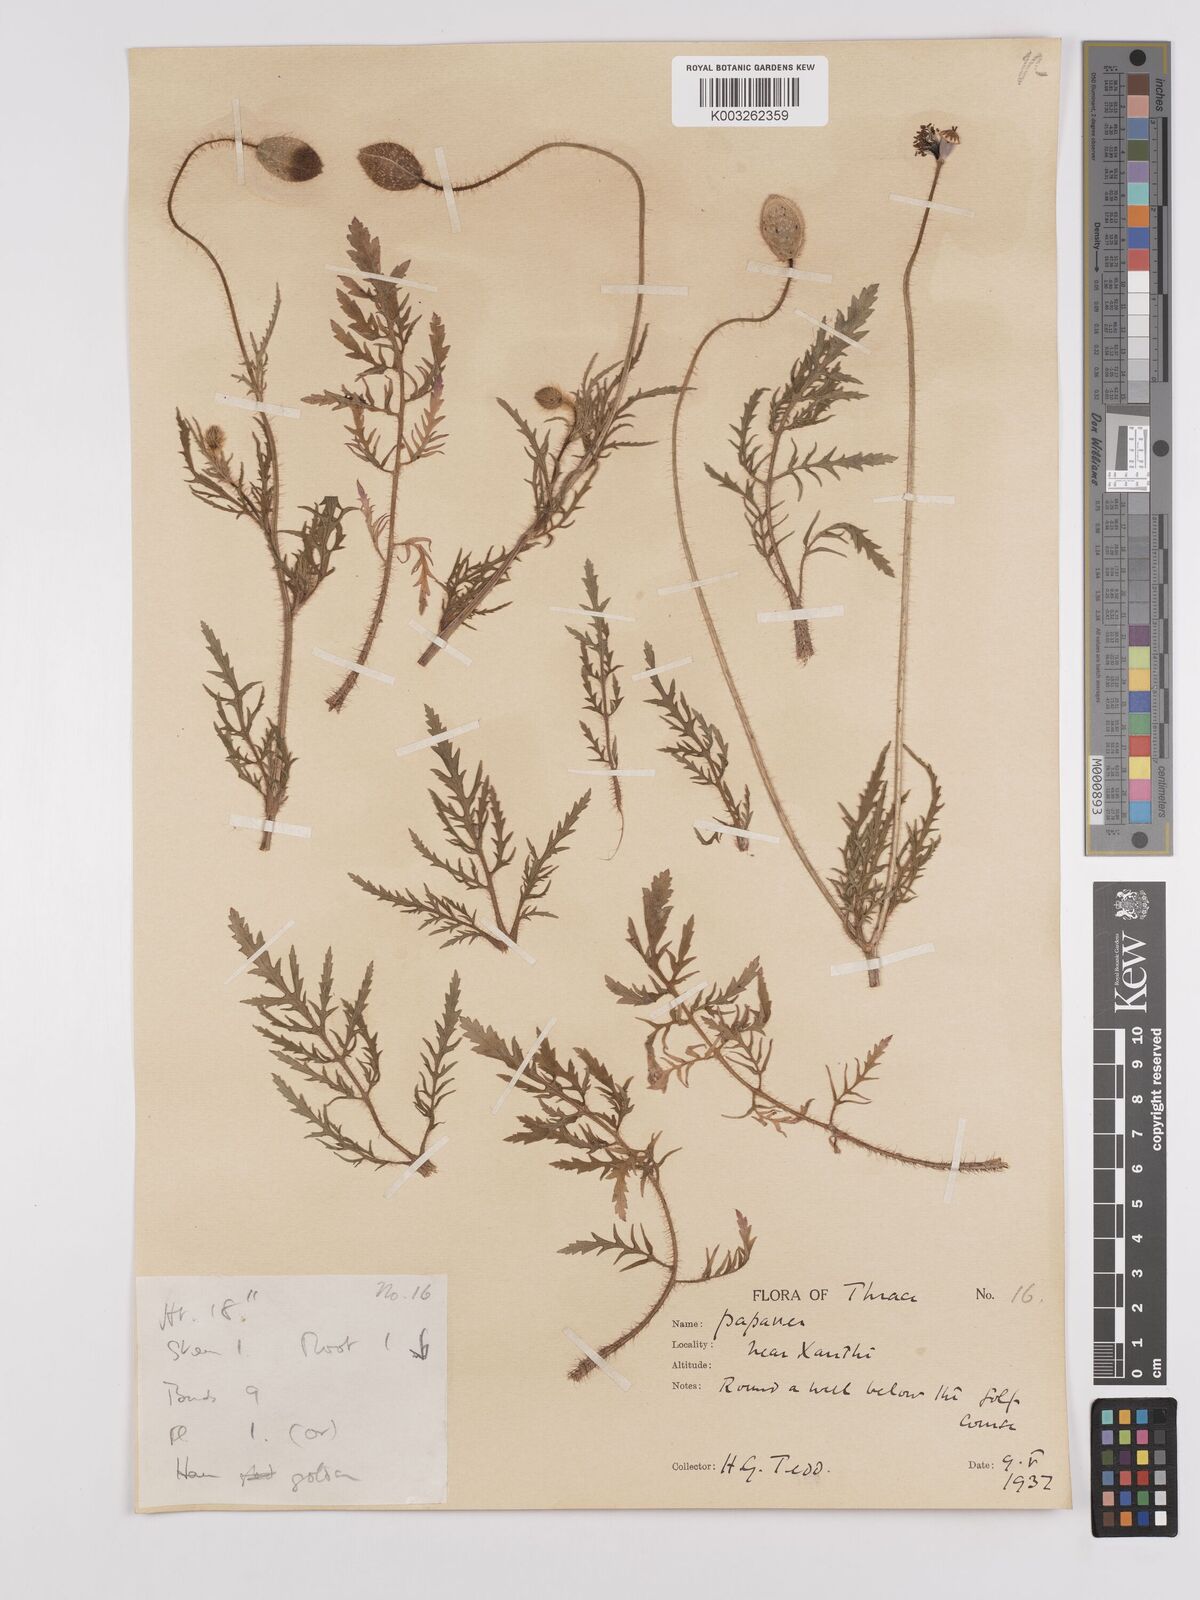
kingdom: Plantae
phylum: Tracheophyta
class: Magnoliopsida
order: Ranunculales
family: Papaveraceae
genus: Papaver
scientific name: Papaver rhoeas
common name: Corn poppy
